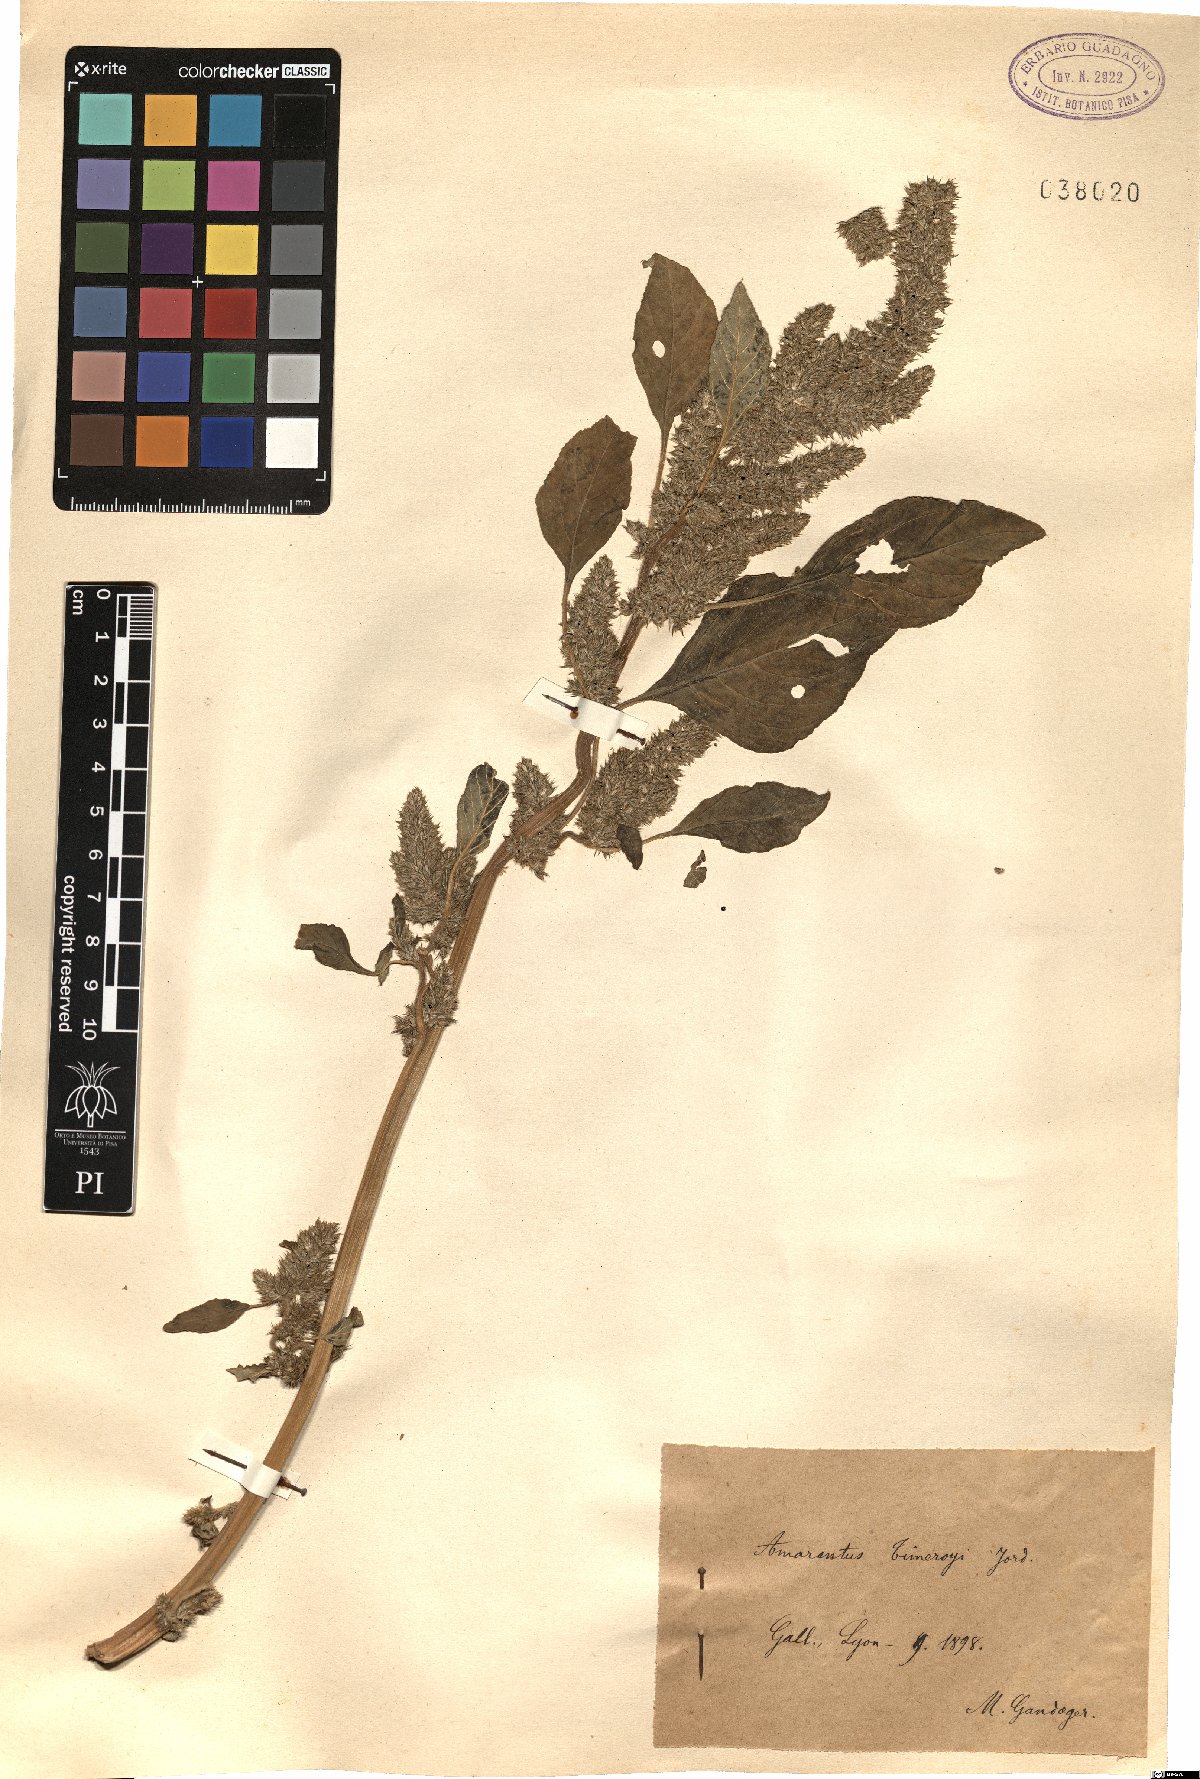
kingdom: Plantae
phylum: Tracheophyta
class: Magnoliopsida
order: Caryophyllales
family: Amaranthaceae
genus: Amaranthus
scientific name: Amaranthus hybridus
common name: Green amaranth
